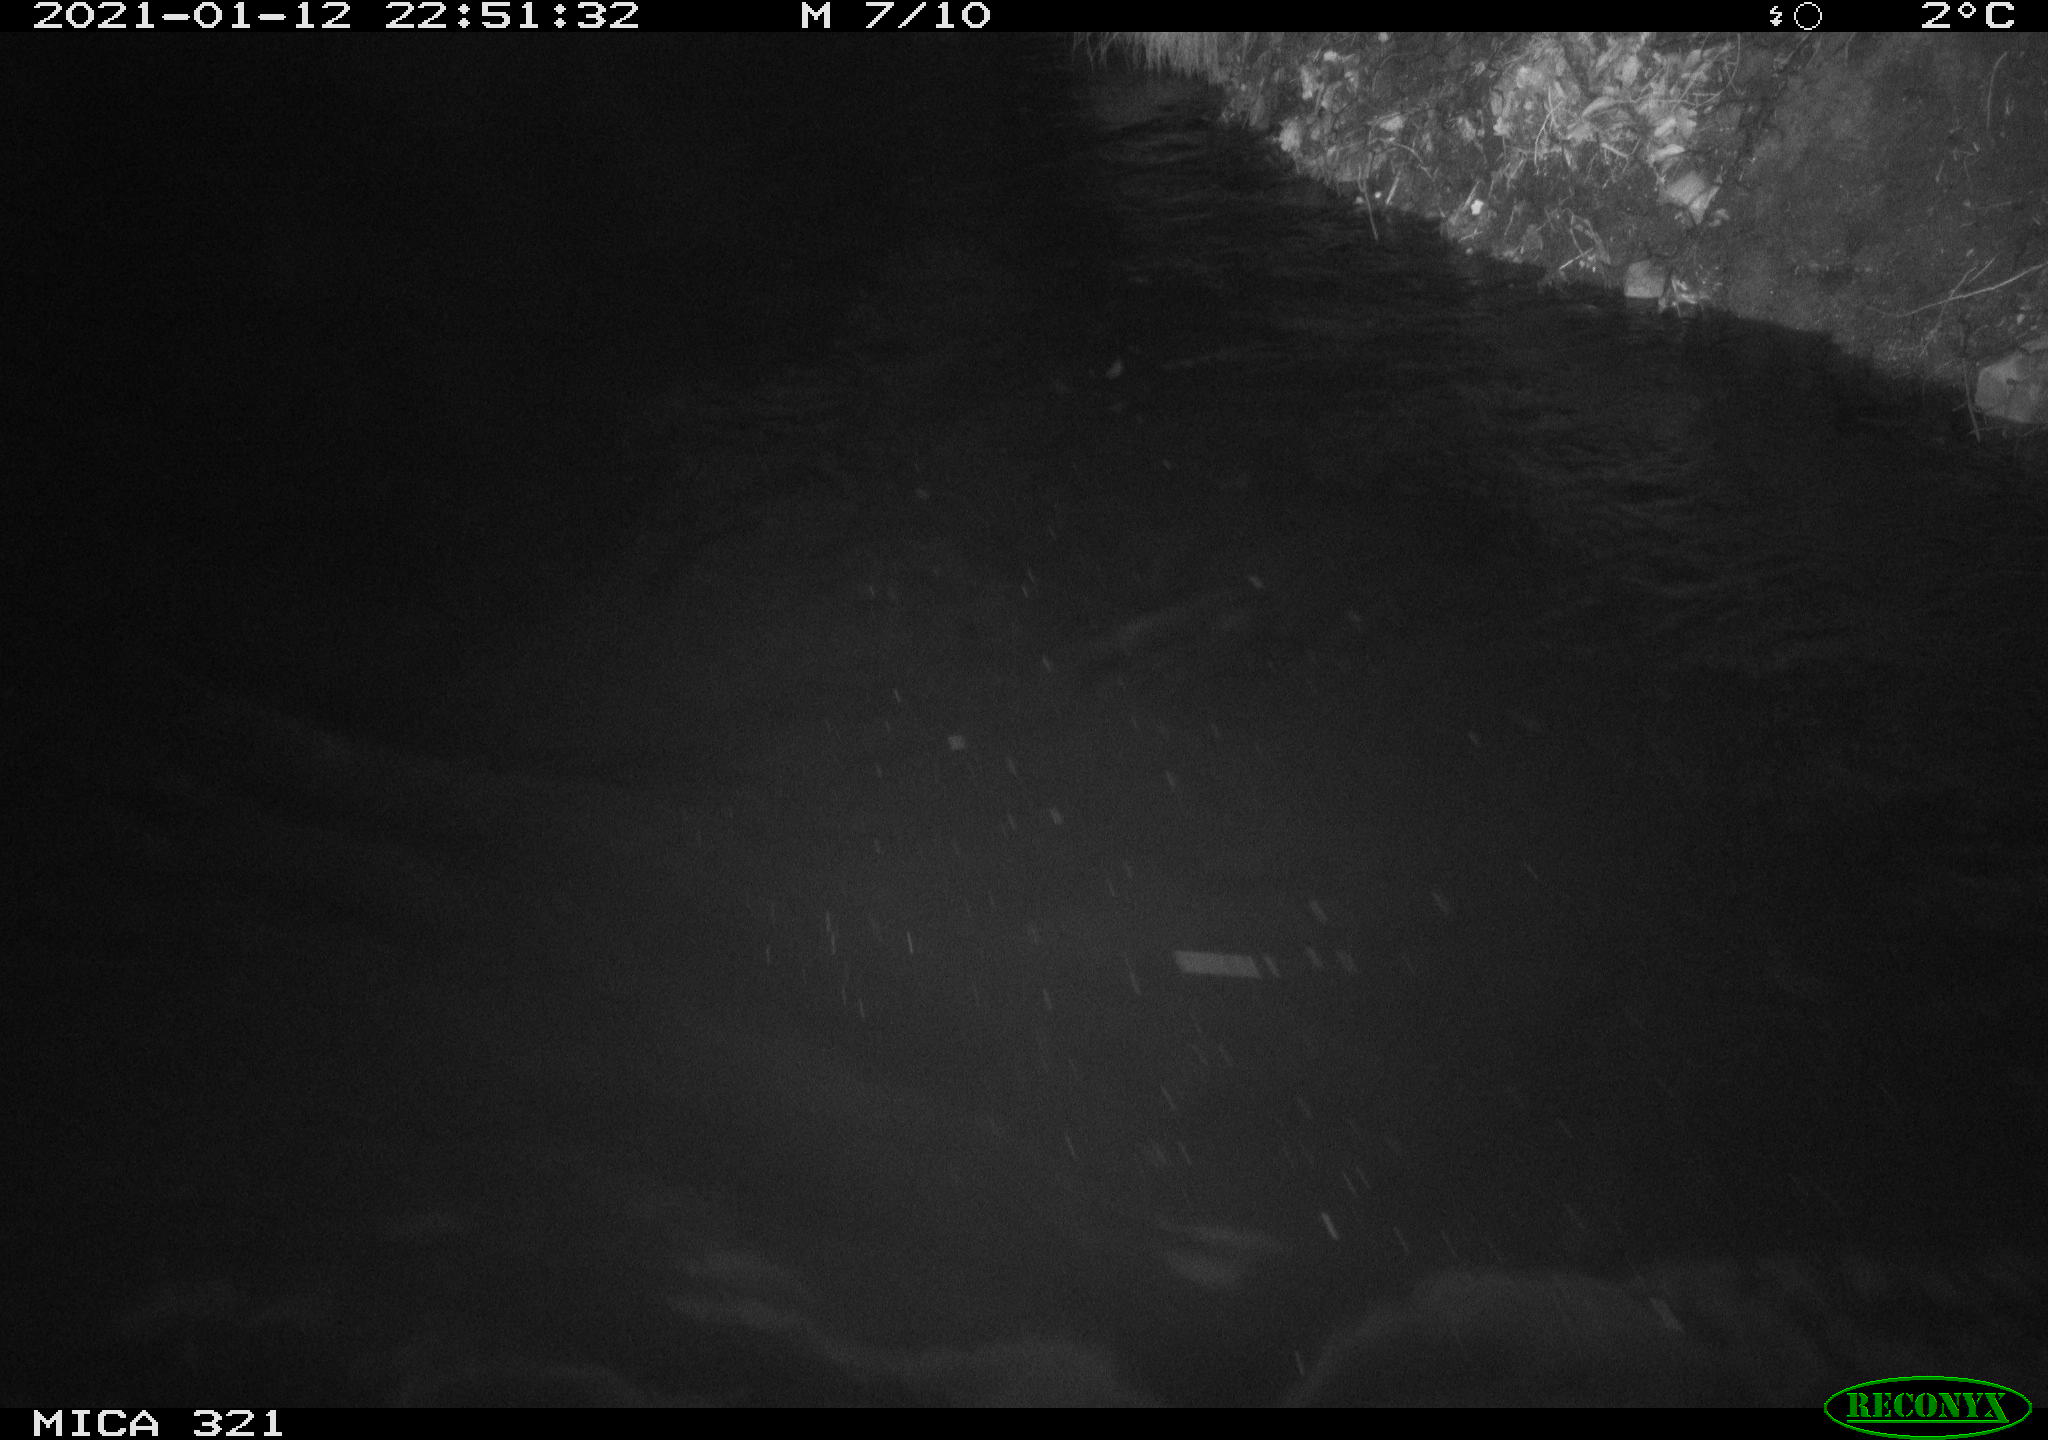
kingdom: Animalia
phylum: Chordata
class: Aves
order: Anseriformes
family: Anatidae
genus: Anas
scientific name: Anas platyrhynchos
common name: Mallard
